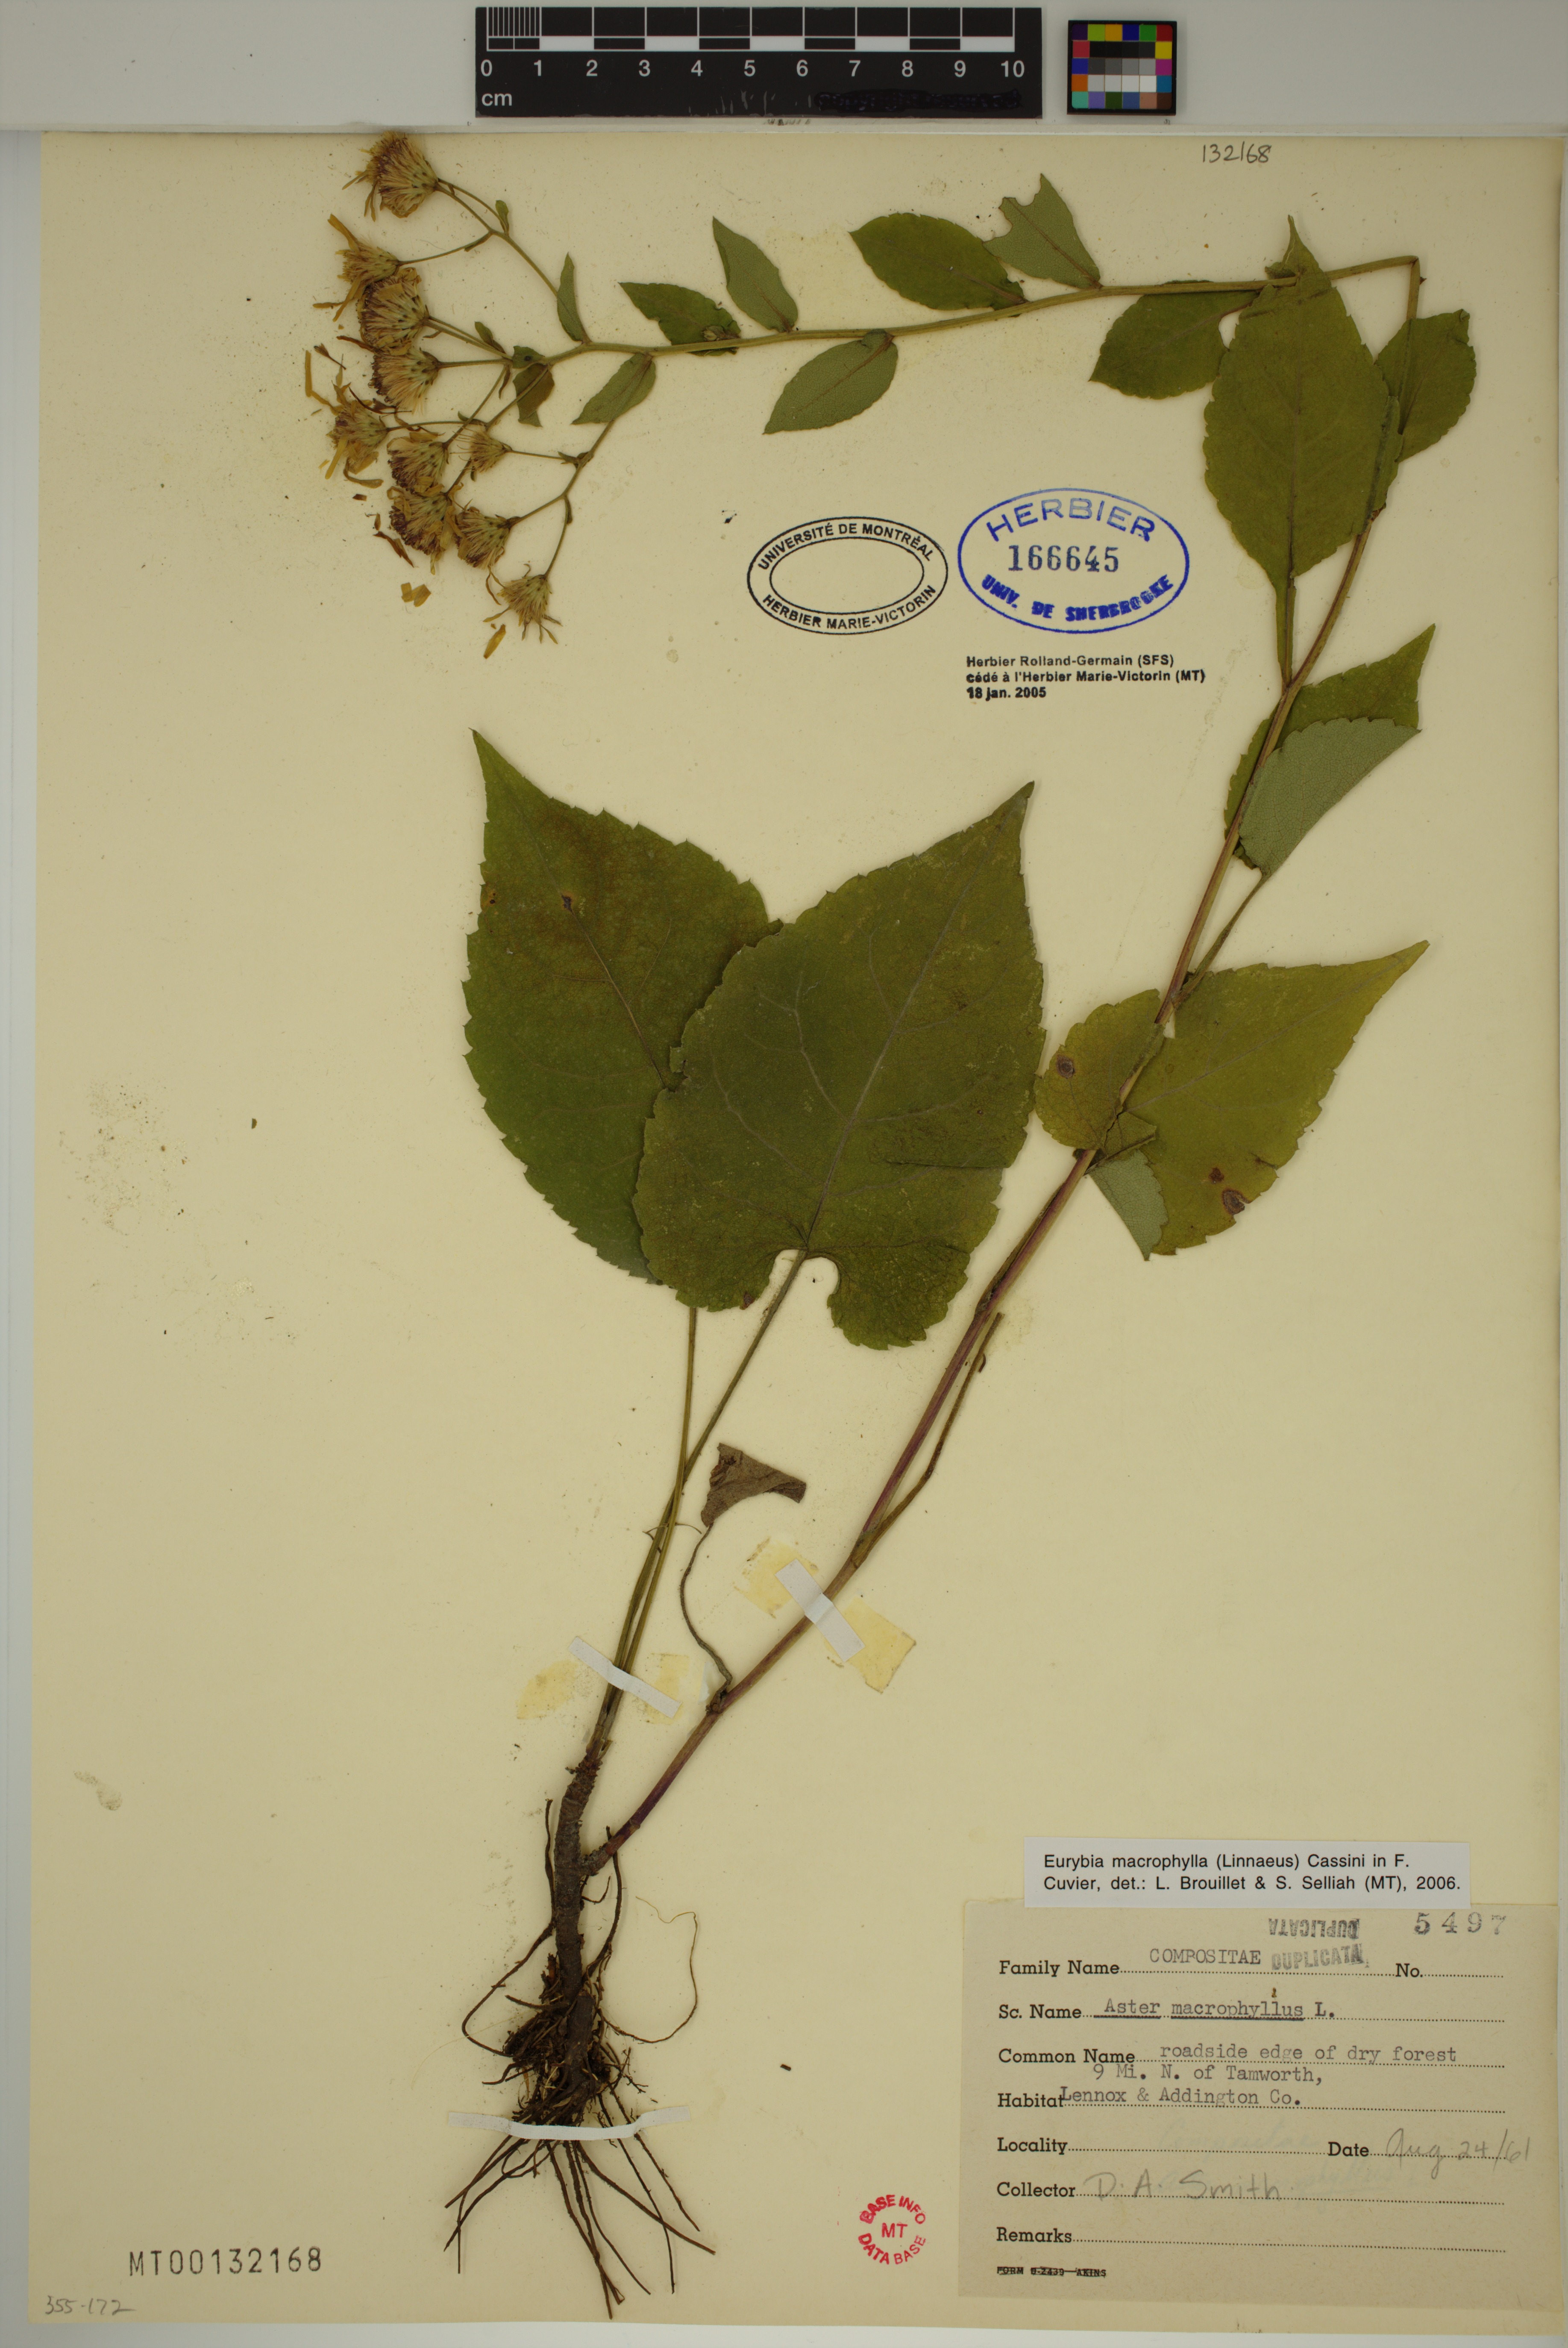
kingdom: Plantae
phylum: Tracheophyta
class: Magnoliopsida
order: Asterales
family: Asteraceae
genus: Eurybia
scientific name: Eurybia macrophylla
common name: Big-leaved aster
